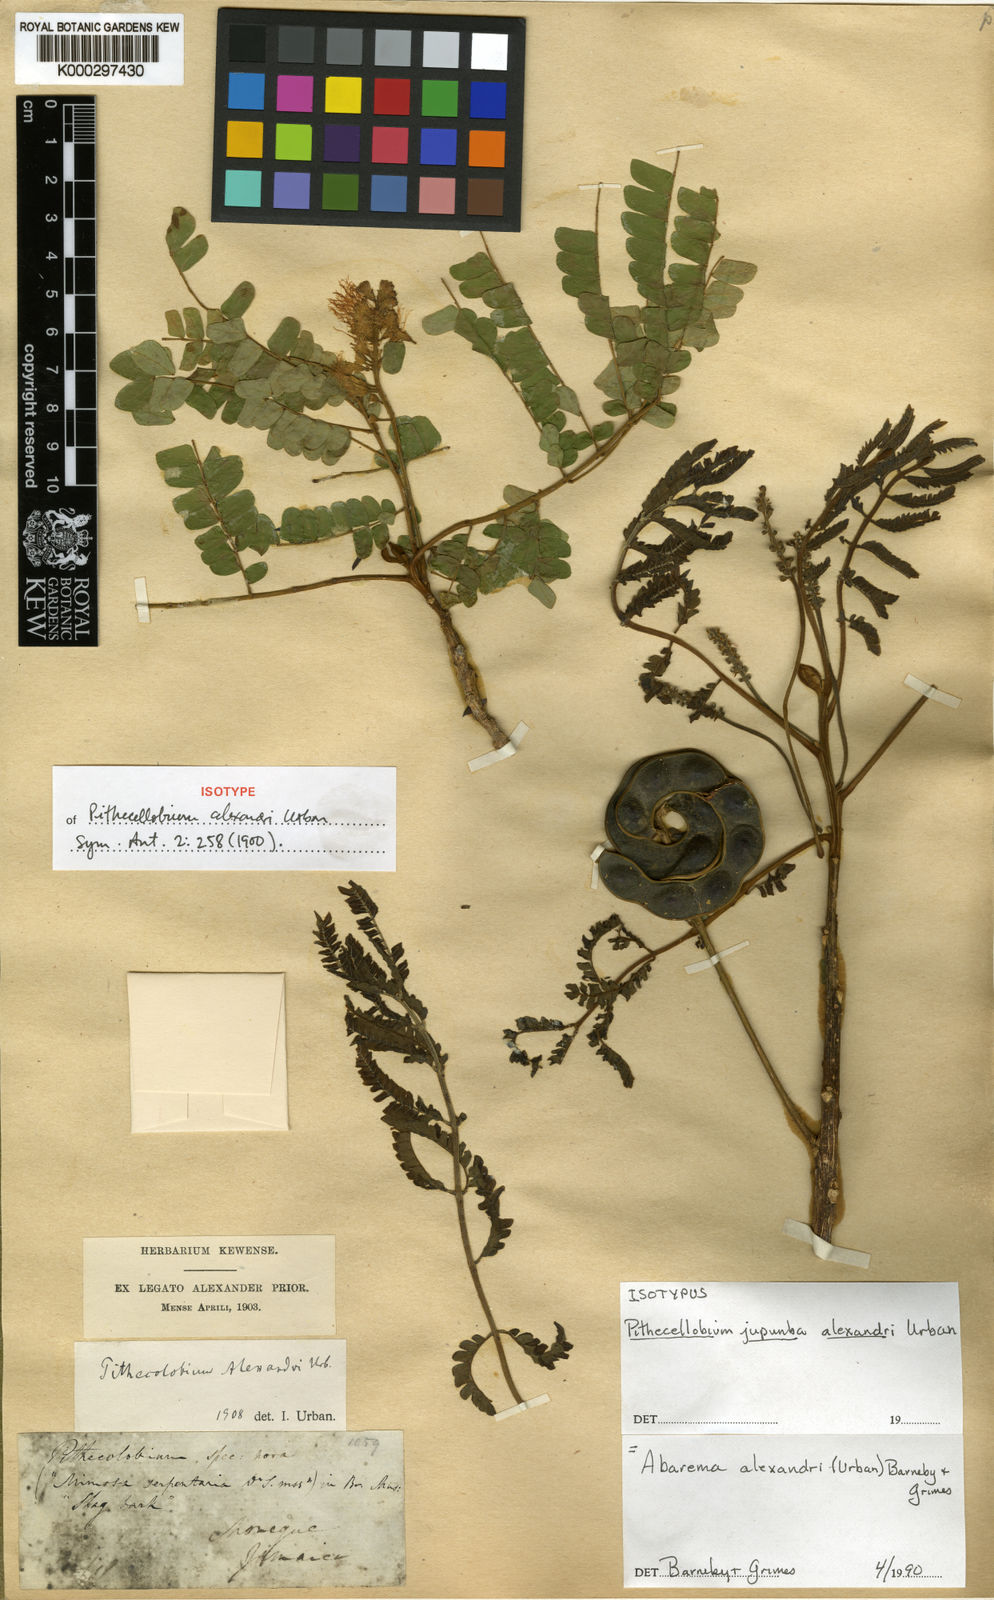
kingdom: Plantae
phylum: Tracheophyta
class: Magnoliopsida
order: Fabales
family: Fabaceae
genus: Jupunba
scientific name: Jupunba alexandri
